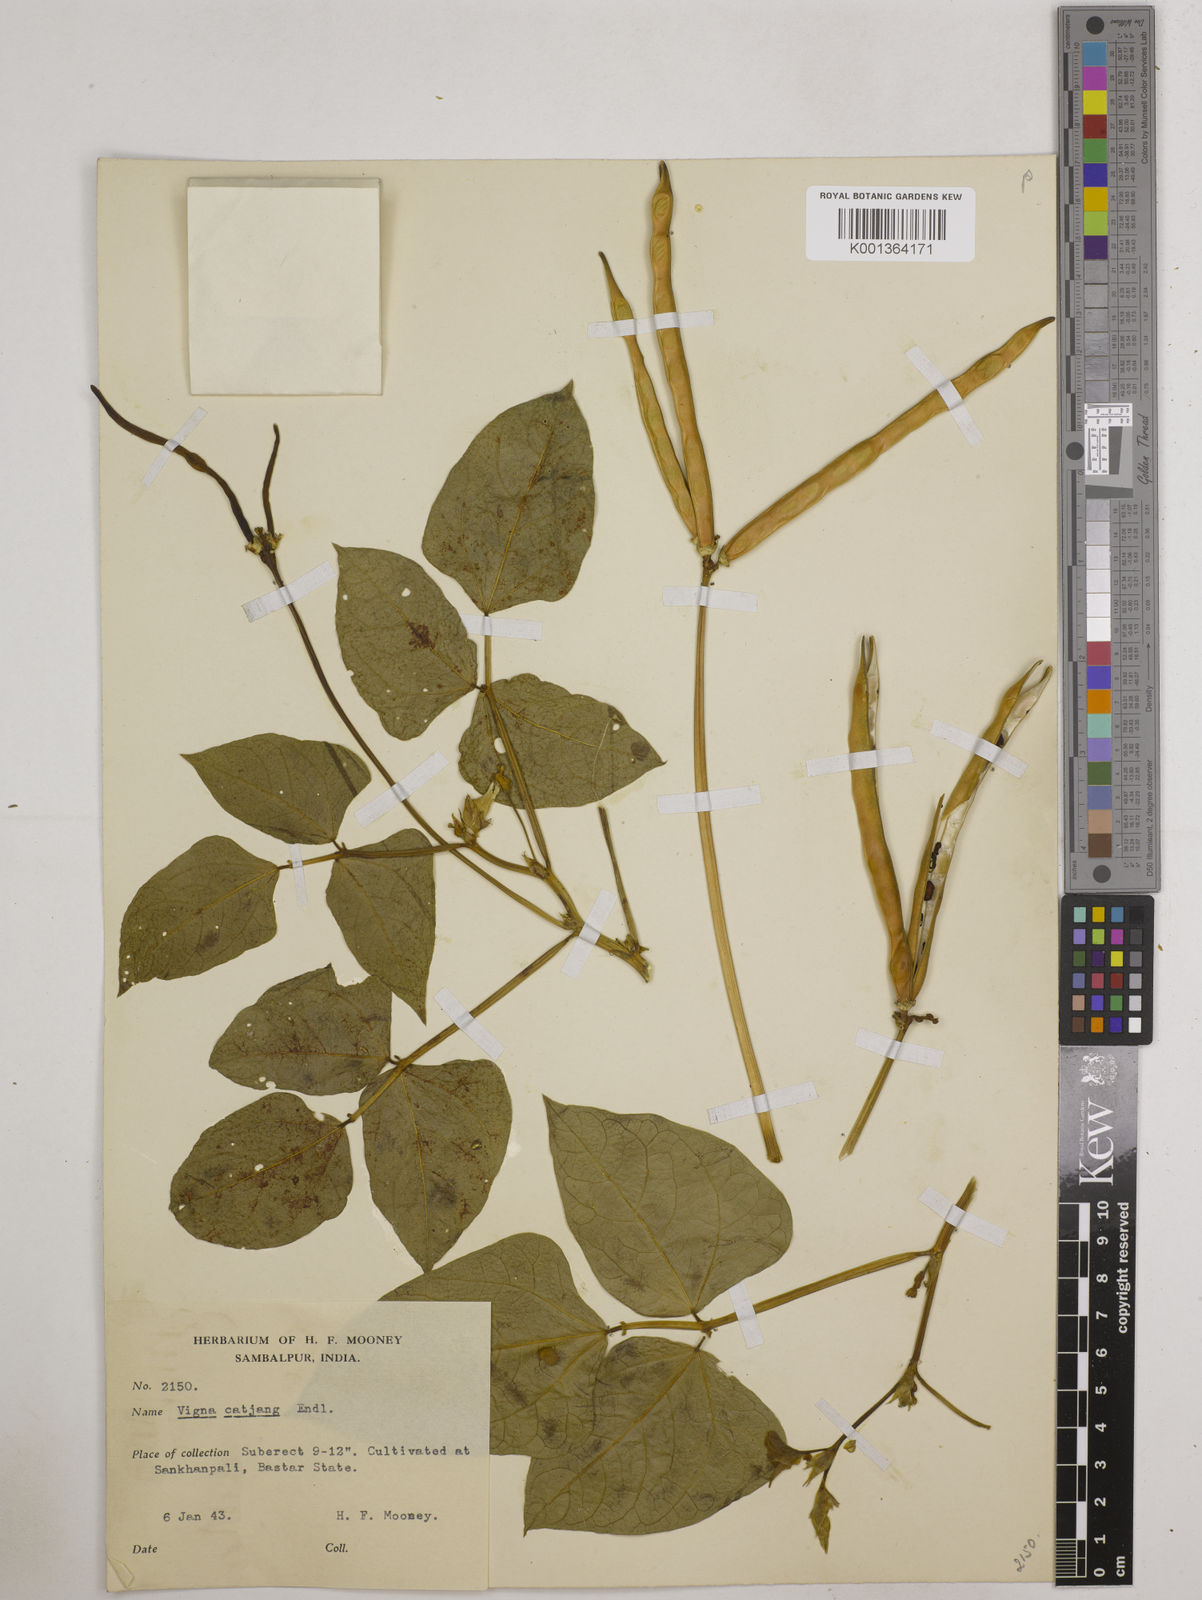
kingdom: Plantae
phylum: Tracheophyta
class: Magnoliopsida
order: Fabales
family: Fabaceae
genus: Vigna
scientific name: Vigna
